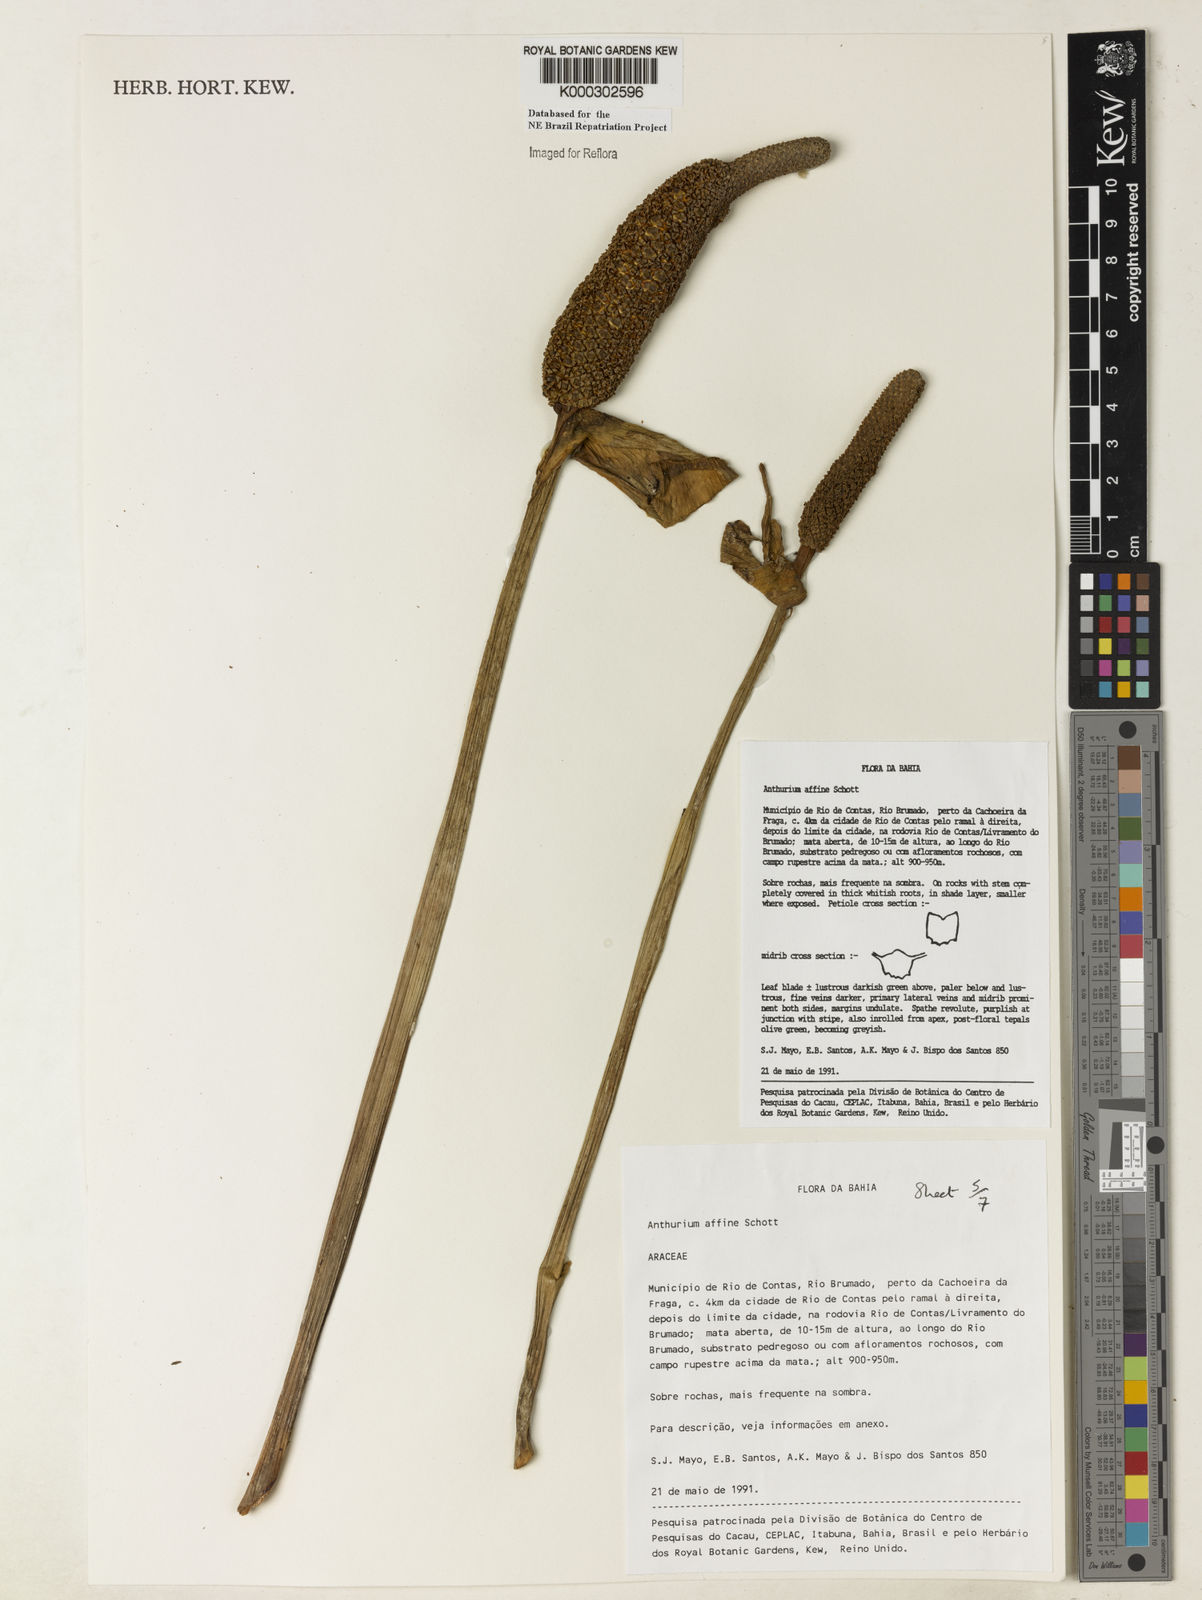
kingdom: Plantae
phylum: Tracheophyta
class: Liliopsida
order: Alismatales
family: Araceae
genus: Anthurium
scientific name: Anthurium affine
